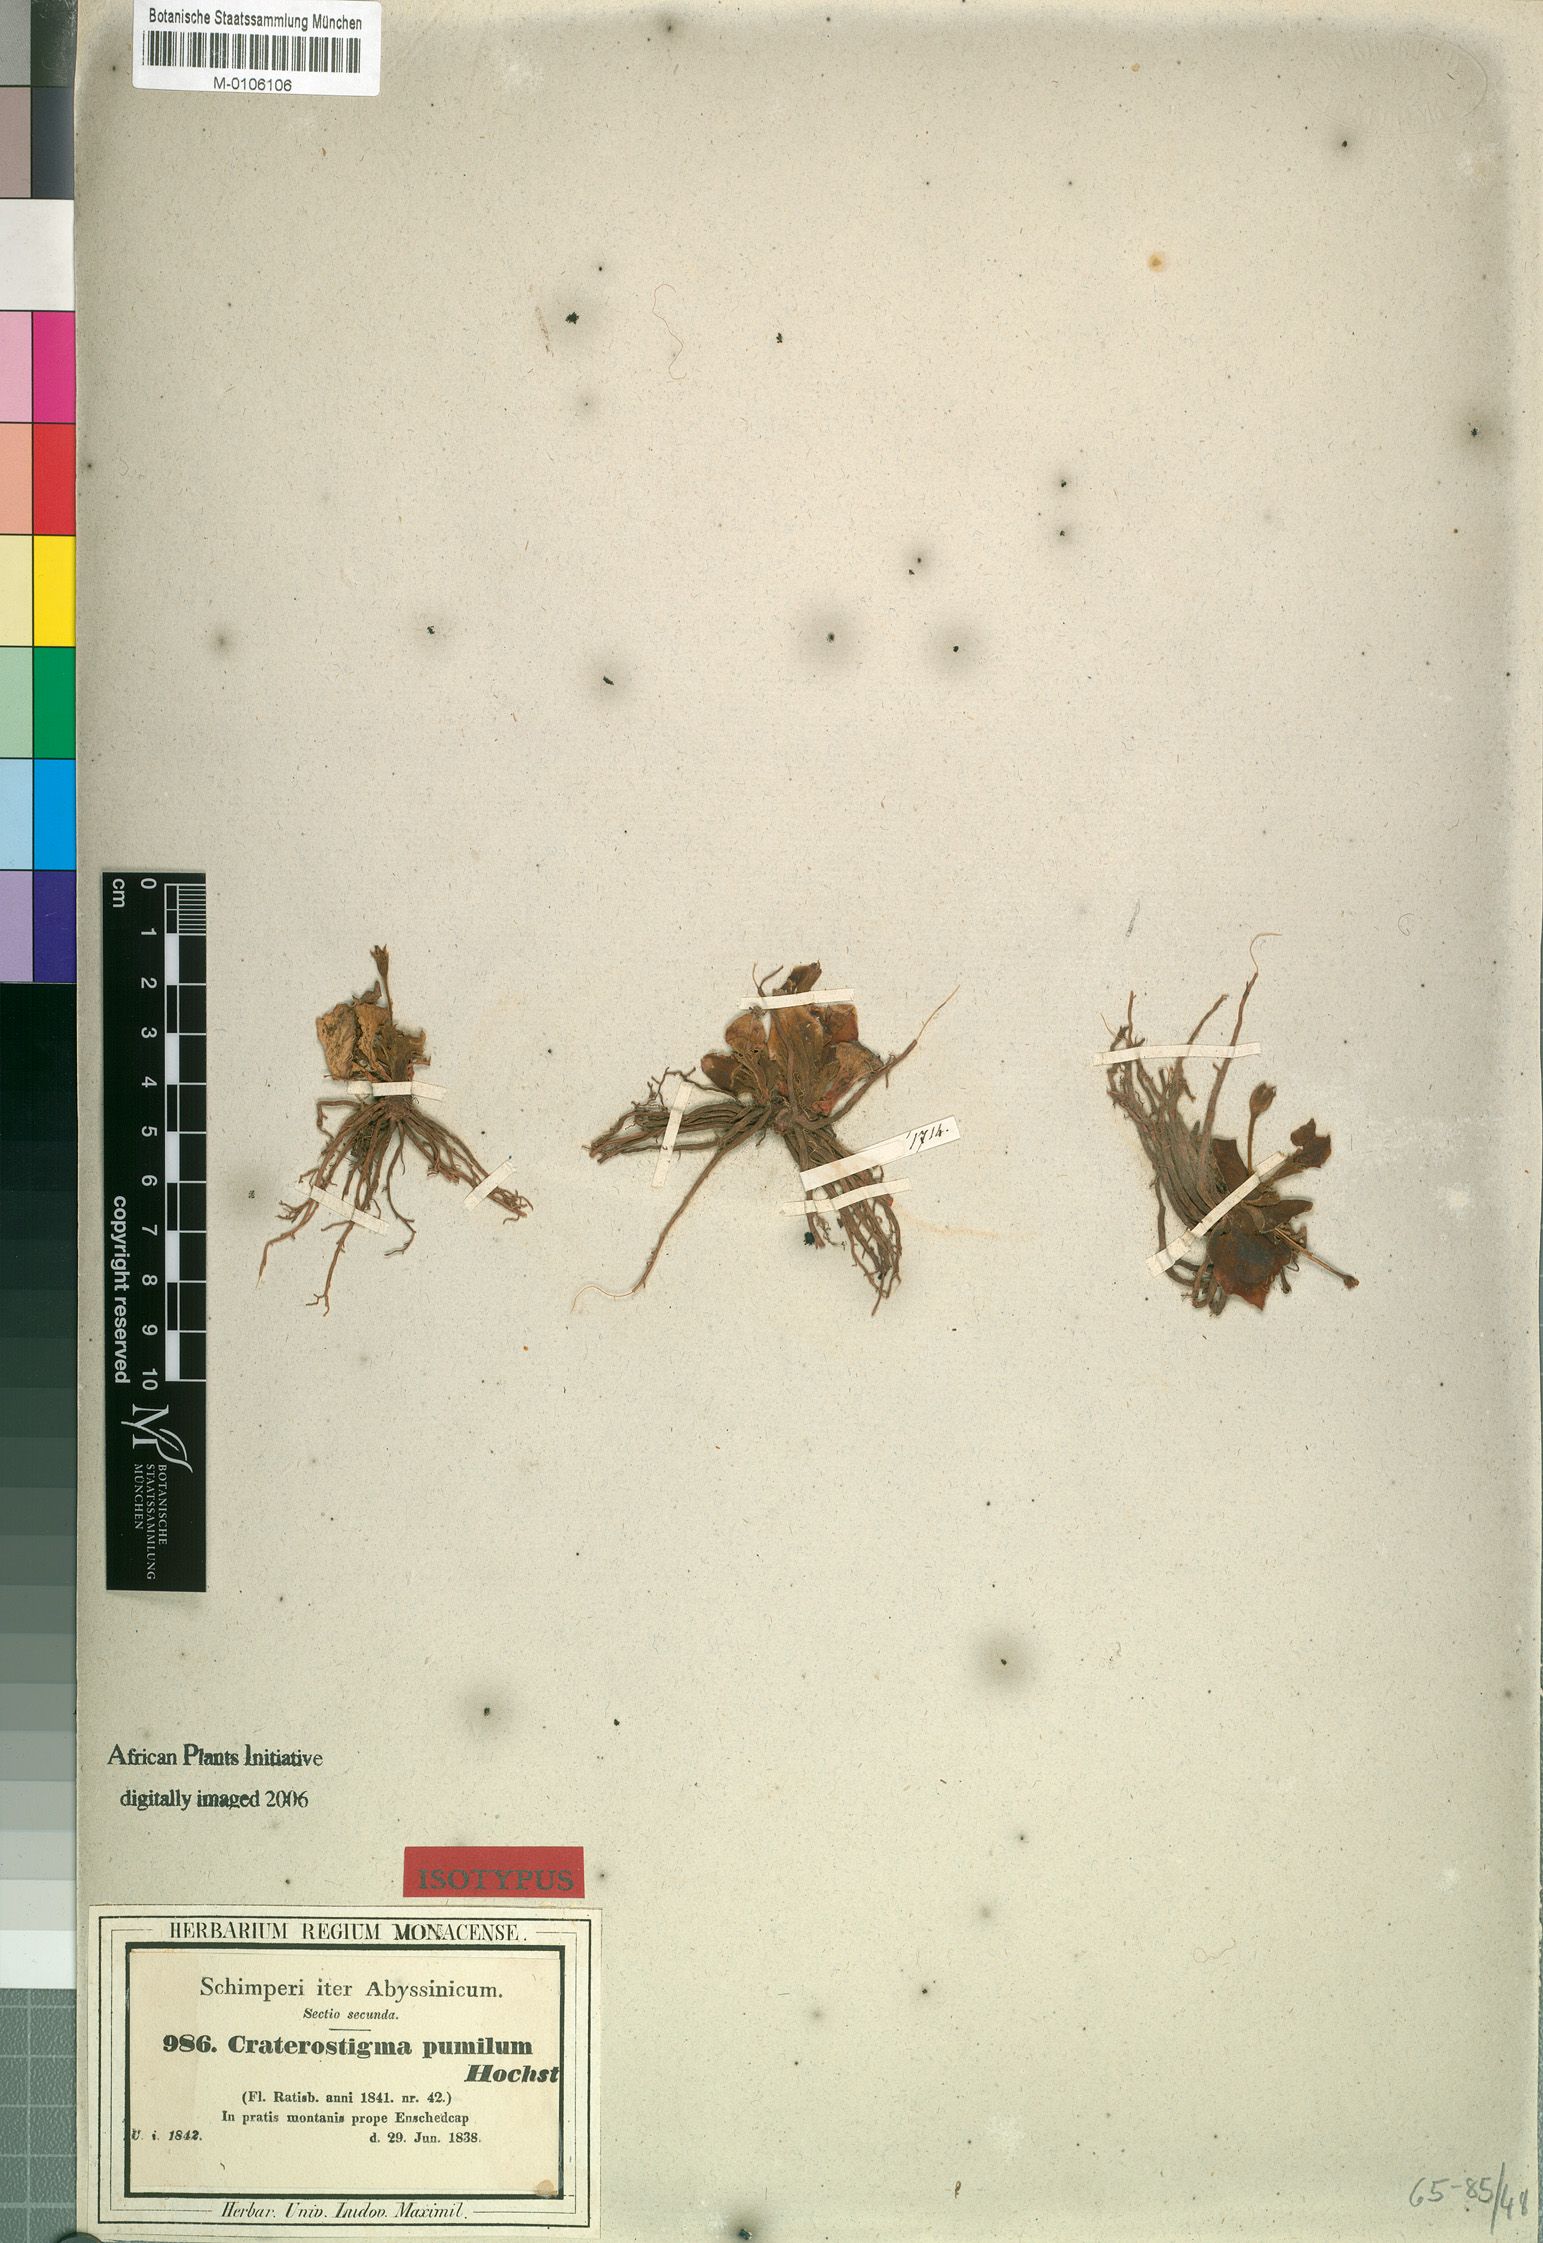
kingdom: Plantae
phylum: Tracheophyta
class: Magnoliopsida
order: Lamiales
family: Linderniaceae
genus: Craterostigma
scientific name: Craterostigma pumilum
